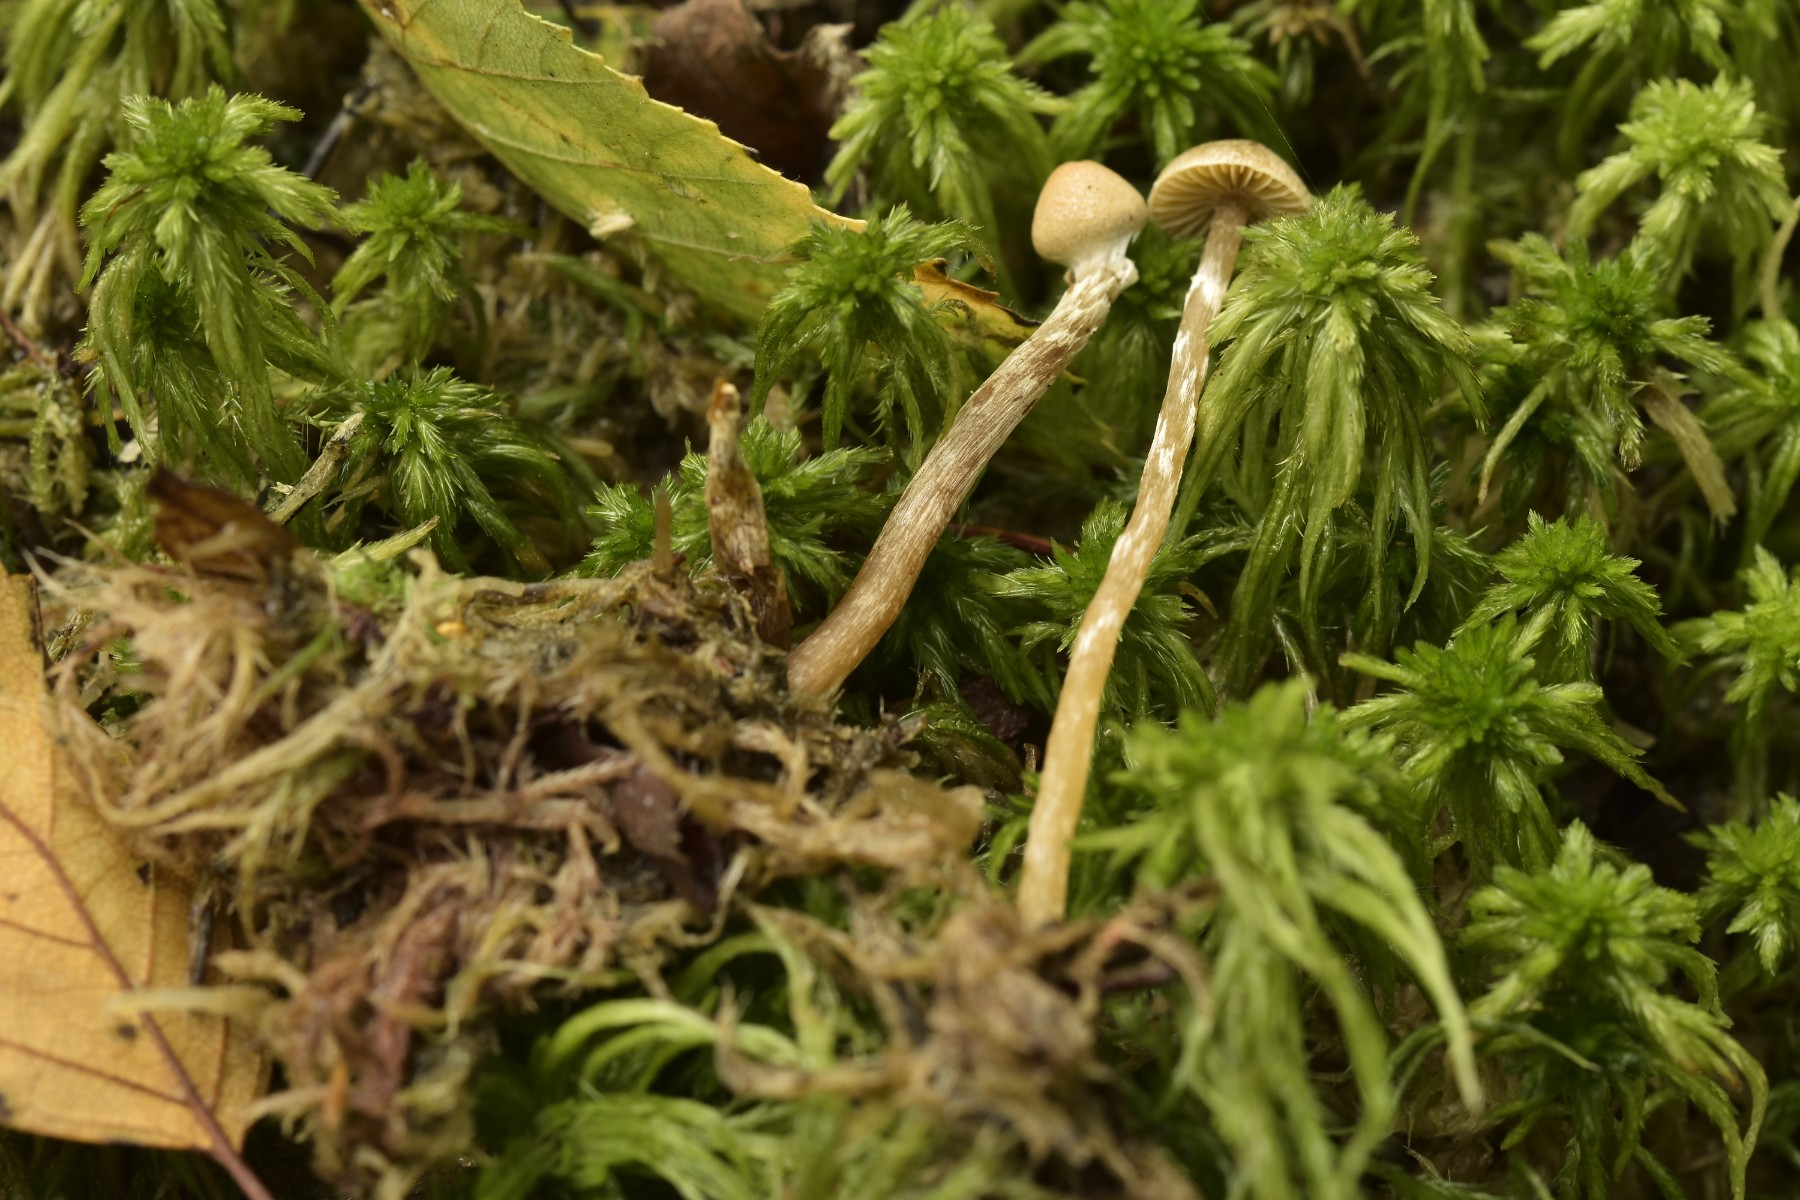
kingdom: Fungi
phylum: Basidiomycota
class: Agaricomycetes
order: Agaricales
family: Hymenogastraceae
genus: Galerina
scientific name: Galerina paludosa
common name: mose-hjelmhat
